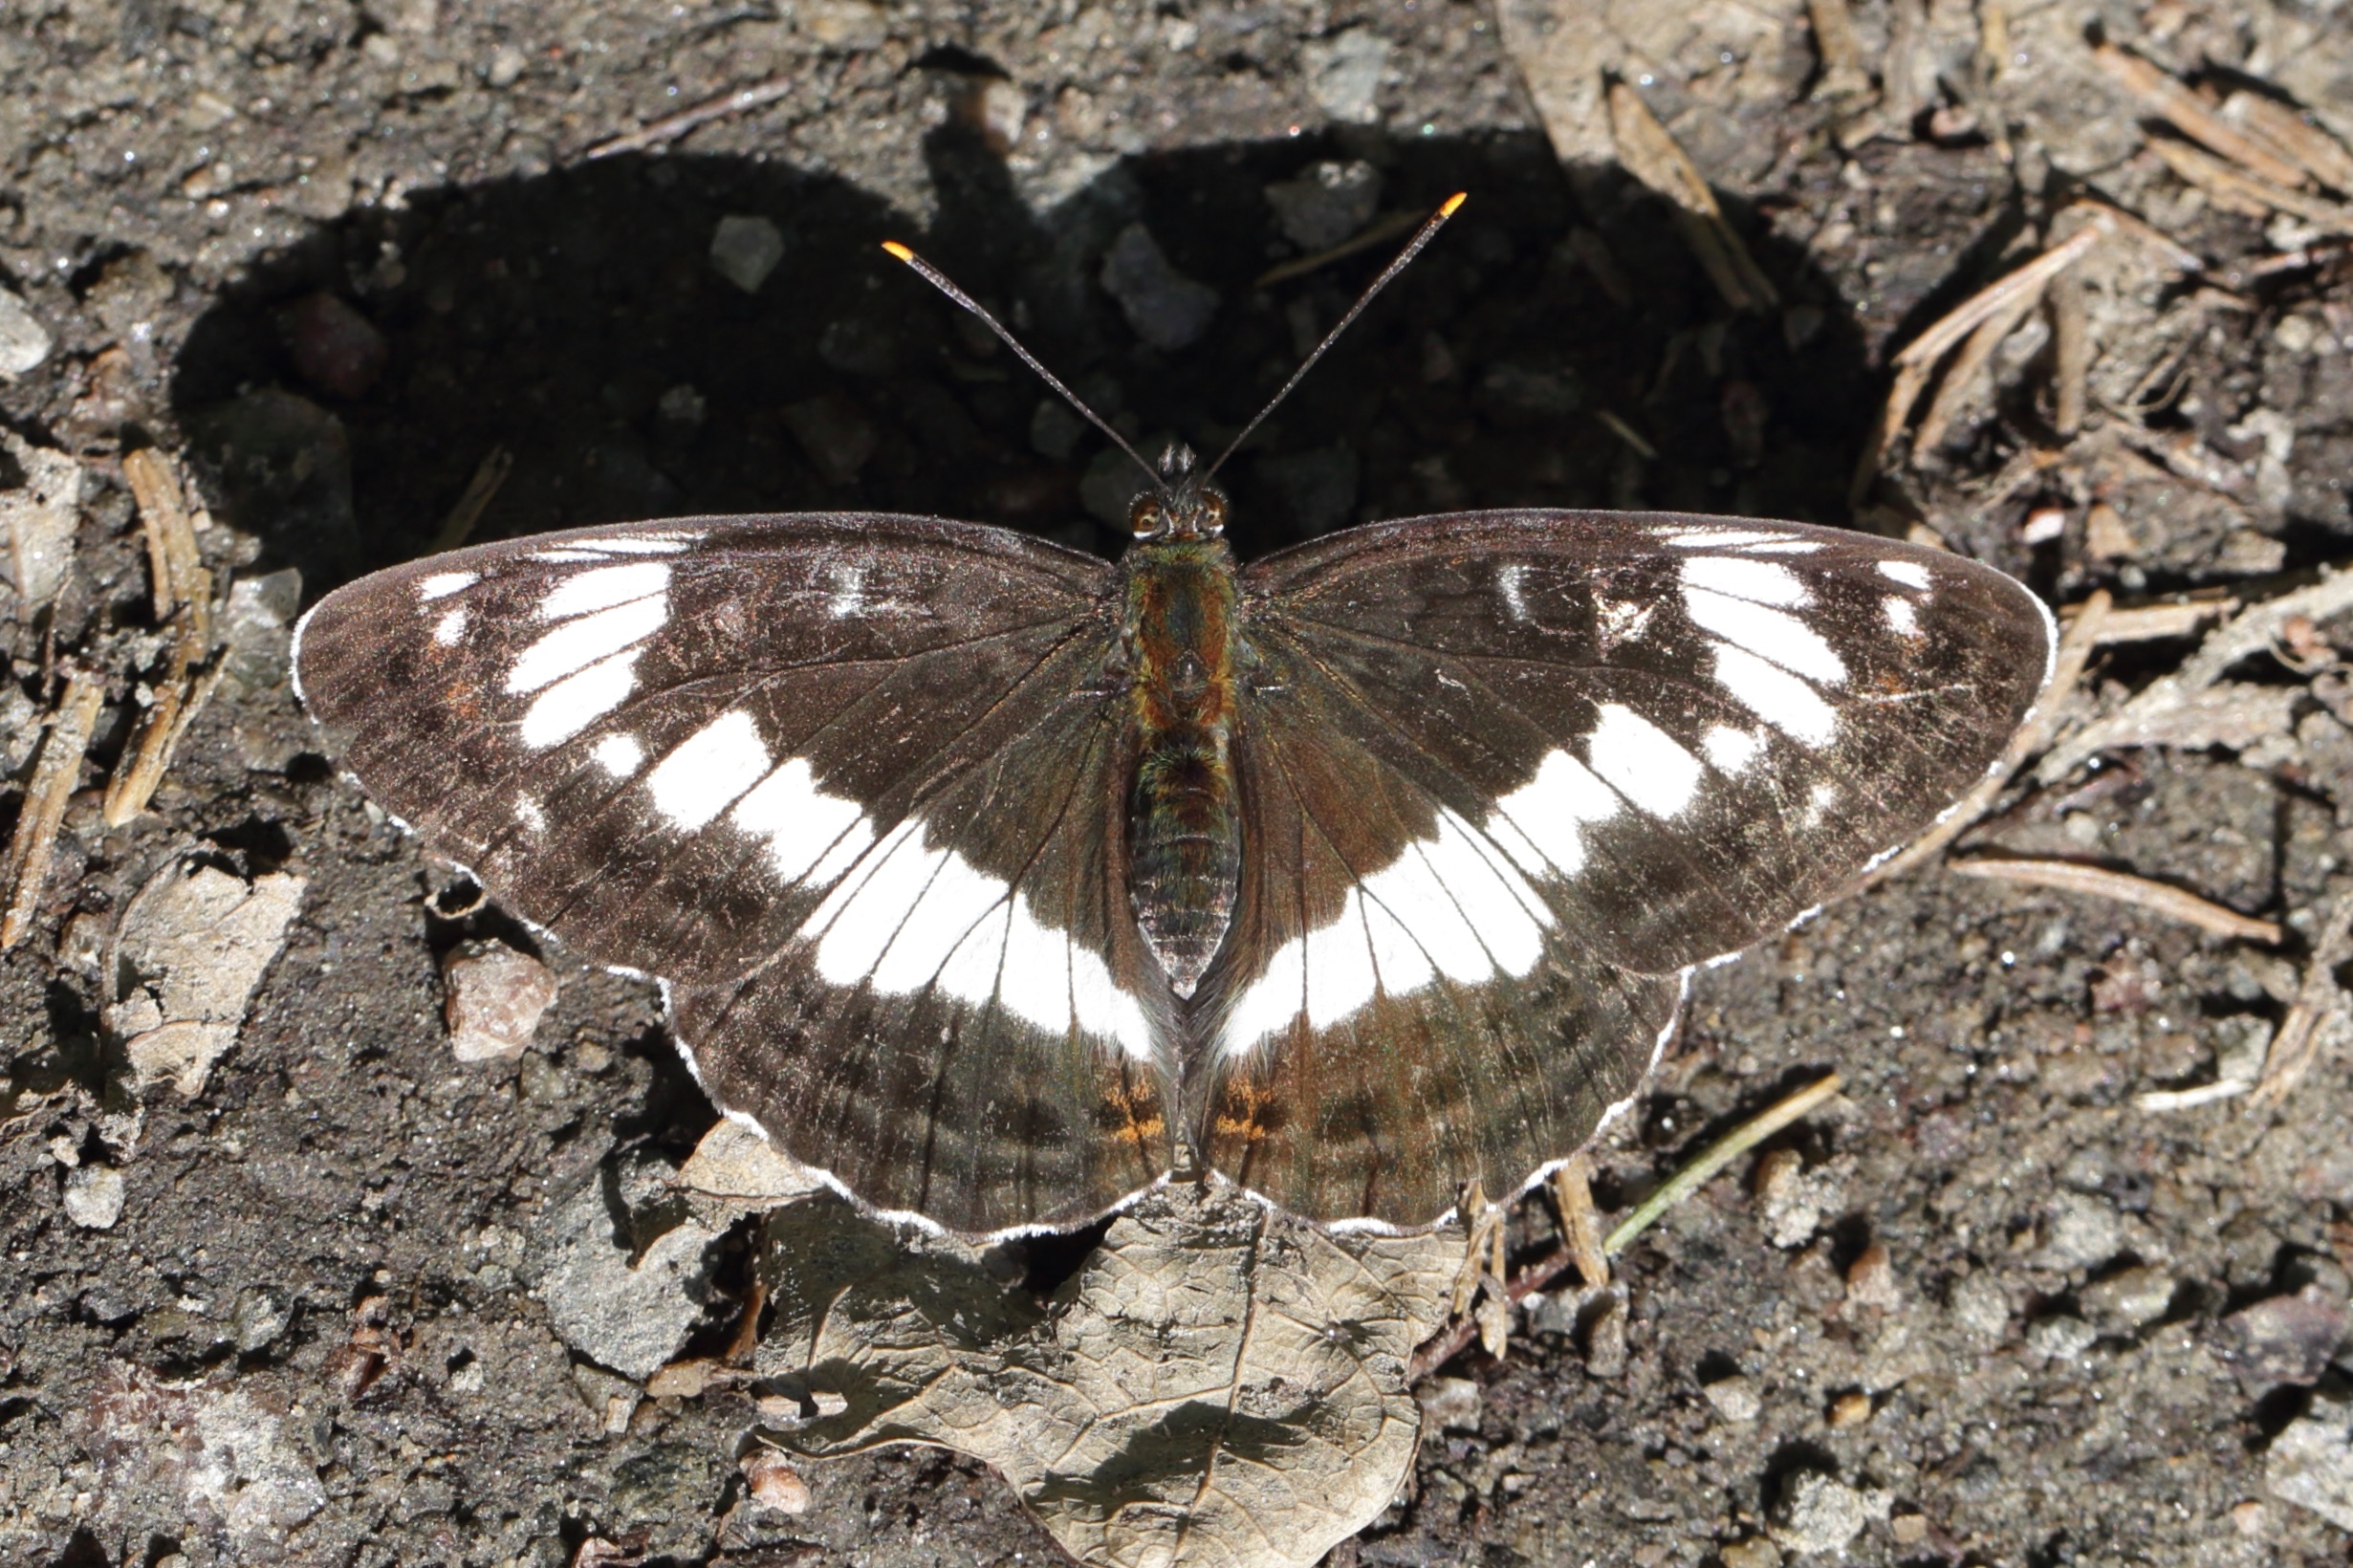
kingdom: Animalia
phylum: Arthropoda
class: Insecta
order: Lepidoptera
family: Nymphalidae
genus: Ladoga
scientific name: Ladoga camilla
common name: Hvid admiral
